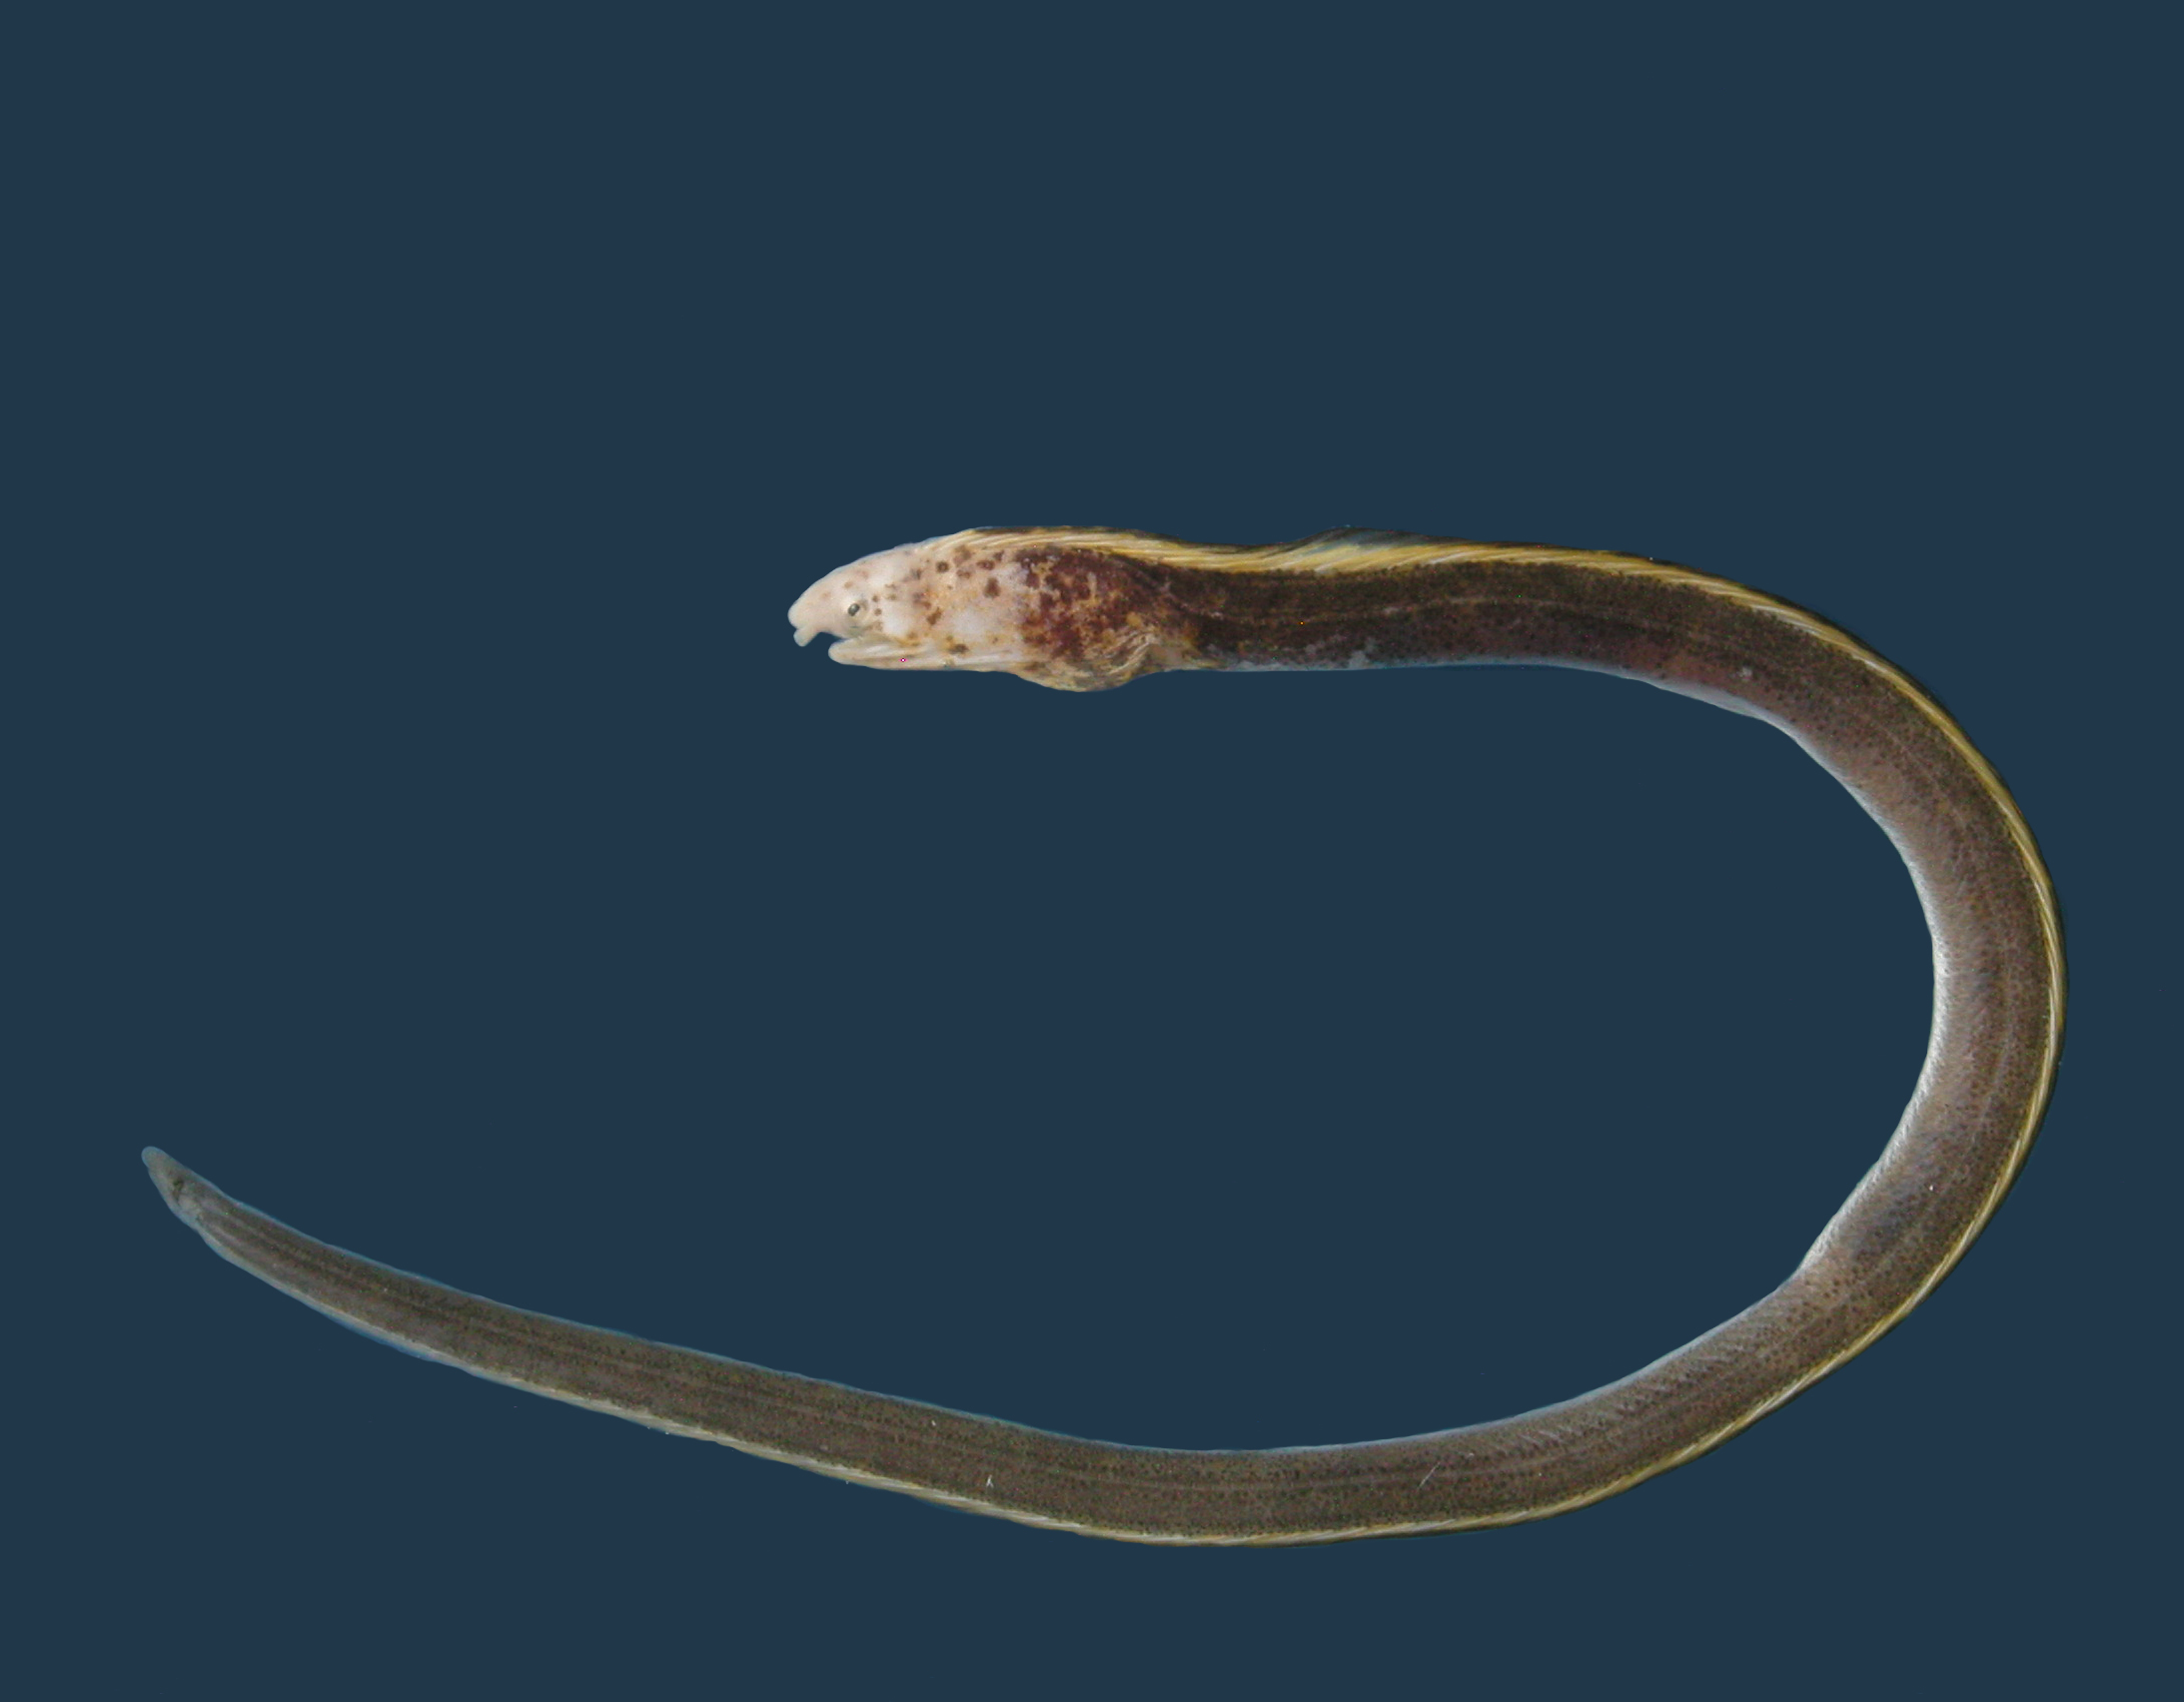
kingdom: Animalia
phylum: Chordata
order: Anguilliformes
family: Ophichthidae
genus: Callechelys
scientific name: Callechelys marmorata
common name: Marbled snake eel
